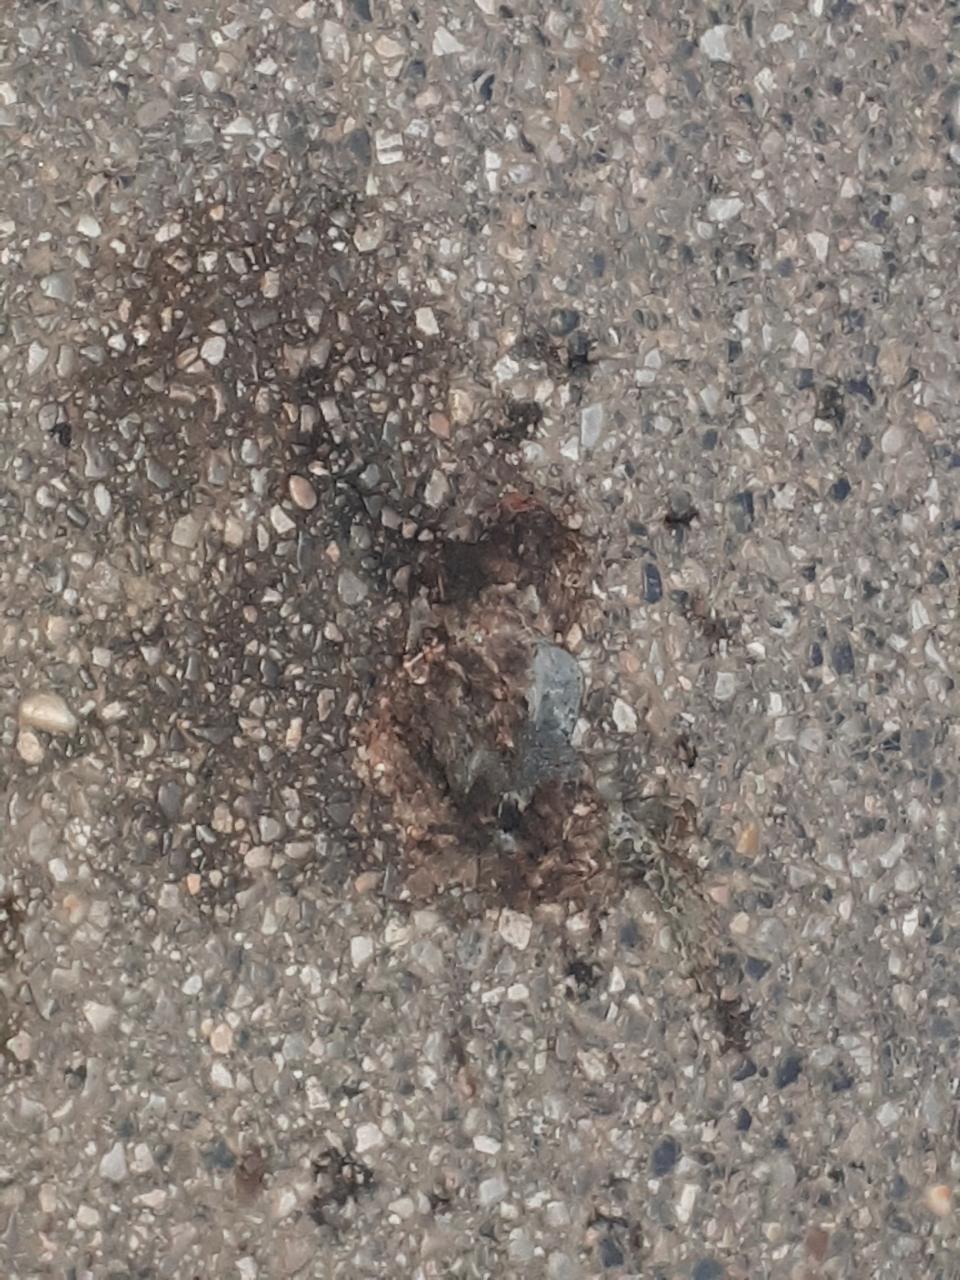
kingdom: Animalia
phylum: Chordata
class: Amphibia
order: Anura
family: Bufonidae
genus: Bufotes
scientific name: Bufotes viridis
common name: European green toad
